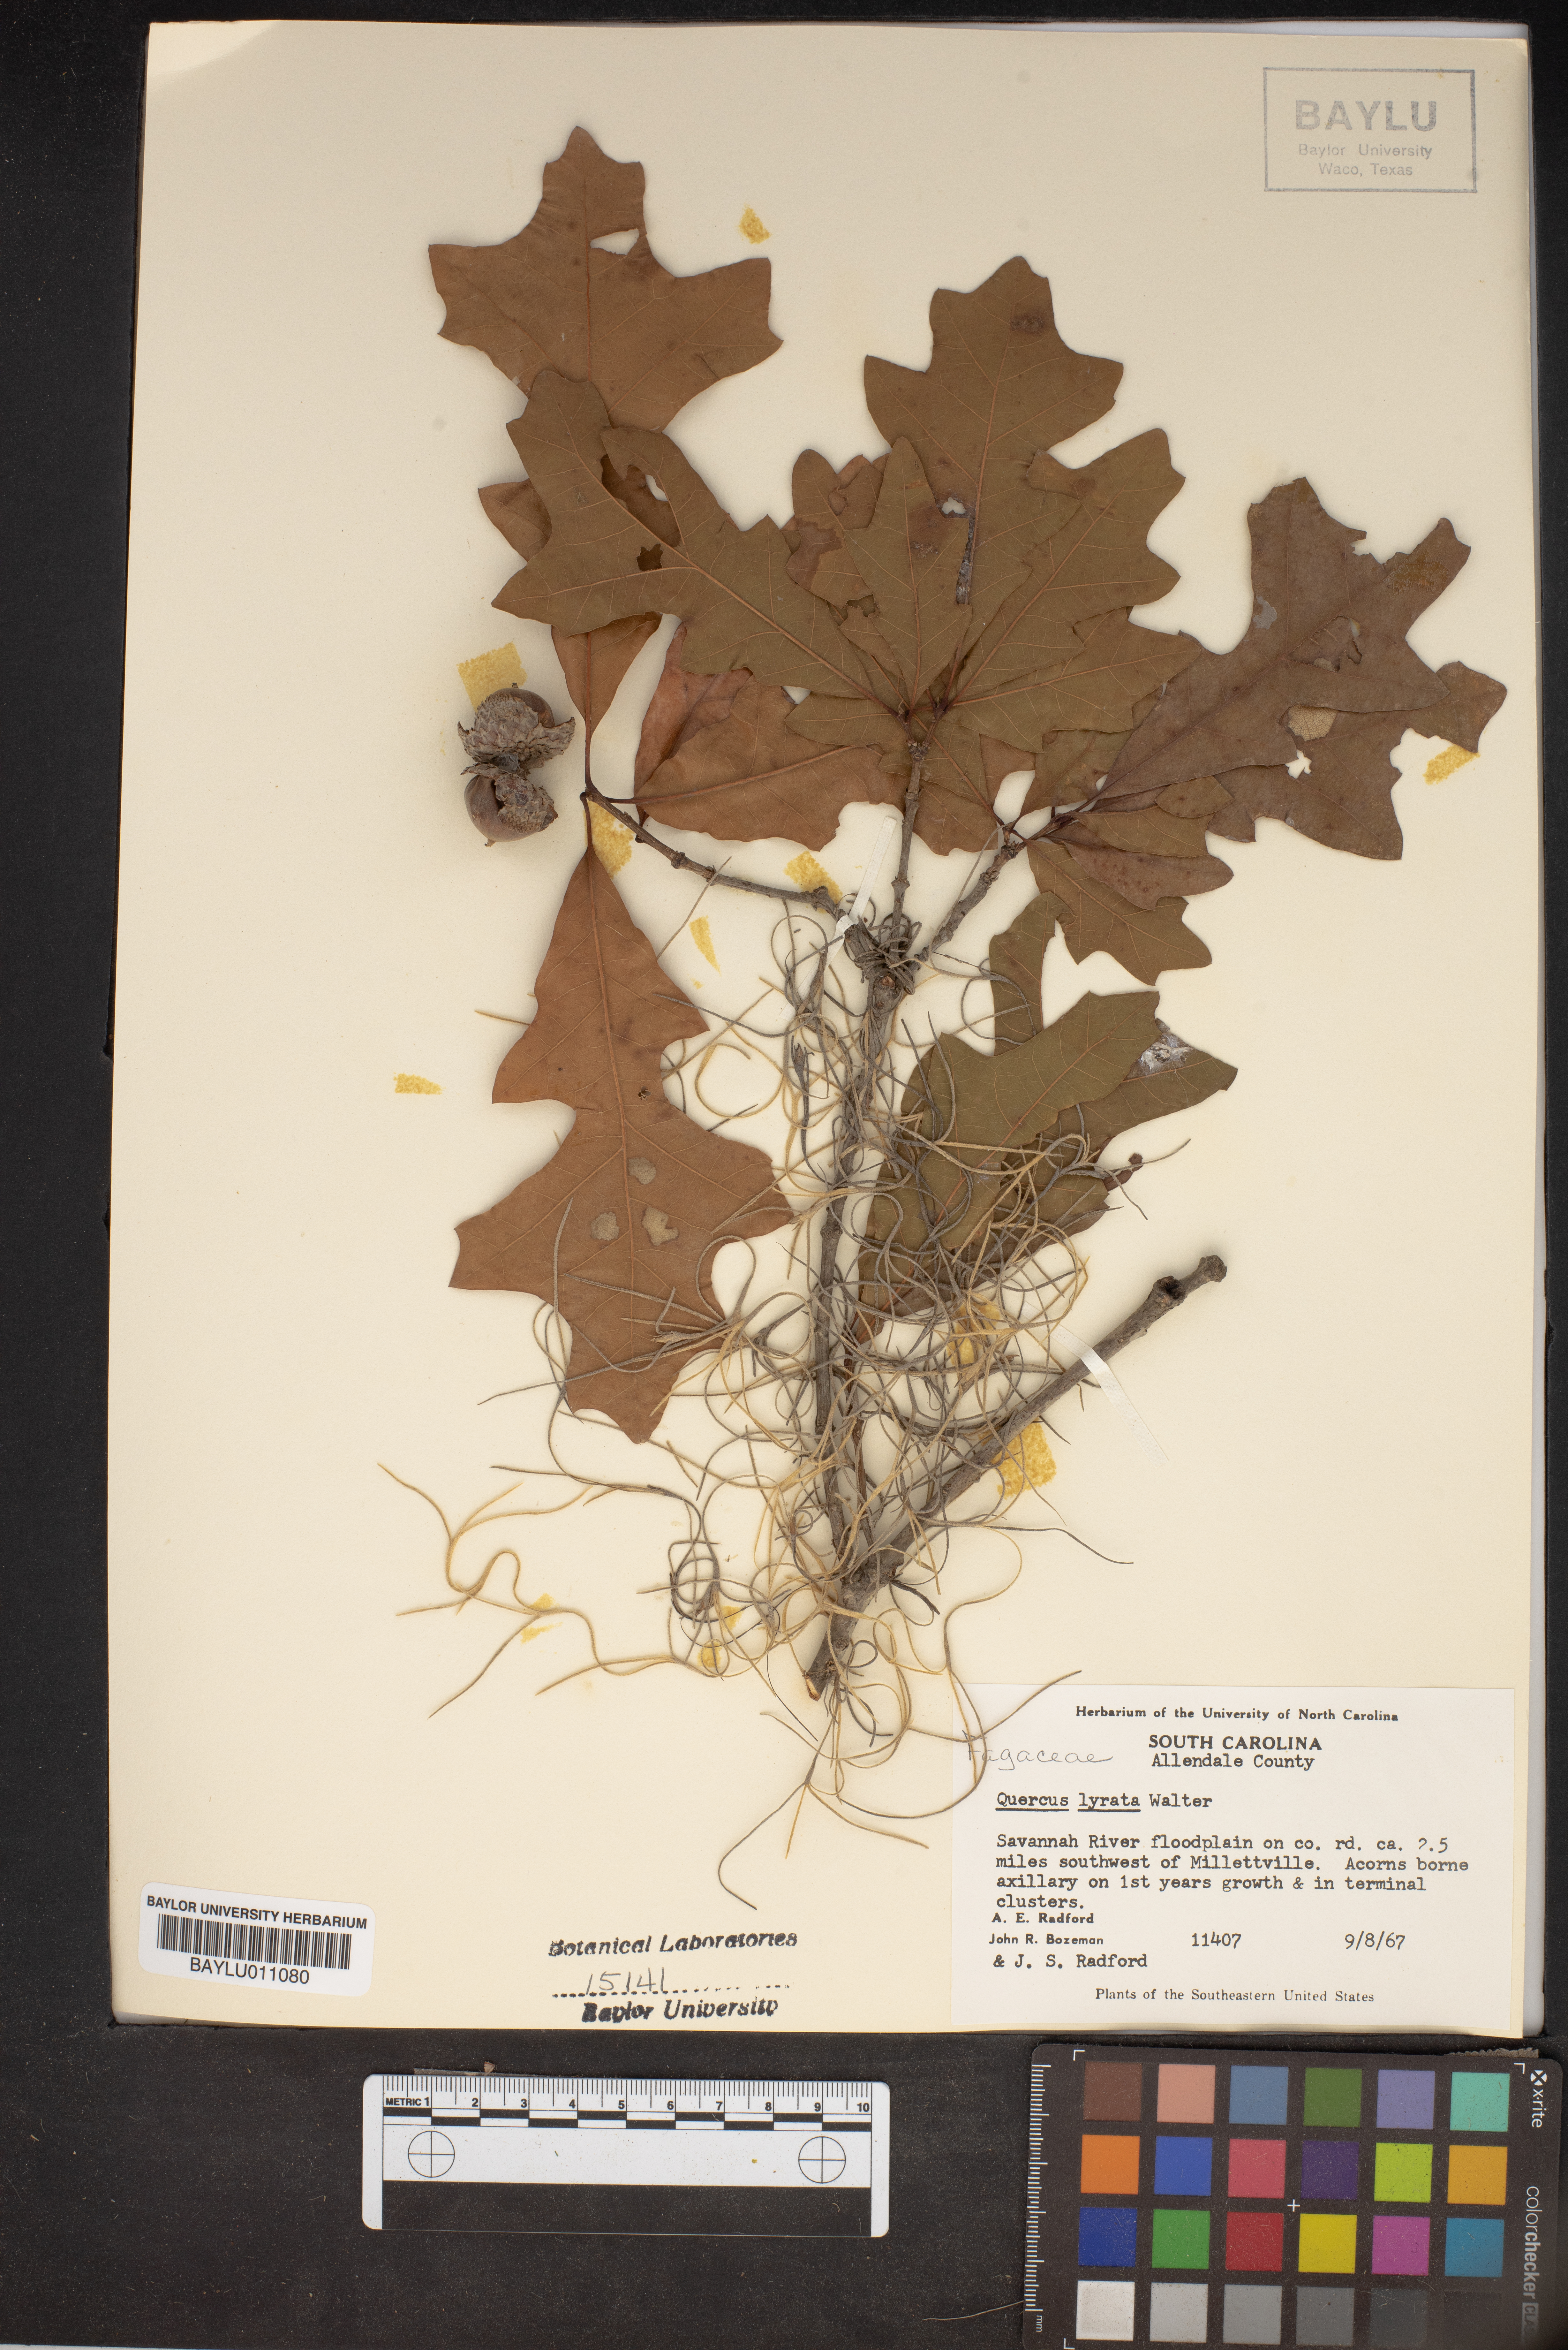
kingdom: Plantae
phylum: Tracheophyta
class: Magnoliopsida
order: Fagales
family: Fagaceae
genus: Quercus
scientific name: Quercus lyrata
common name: Overcup oak
